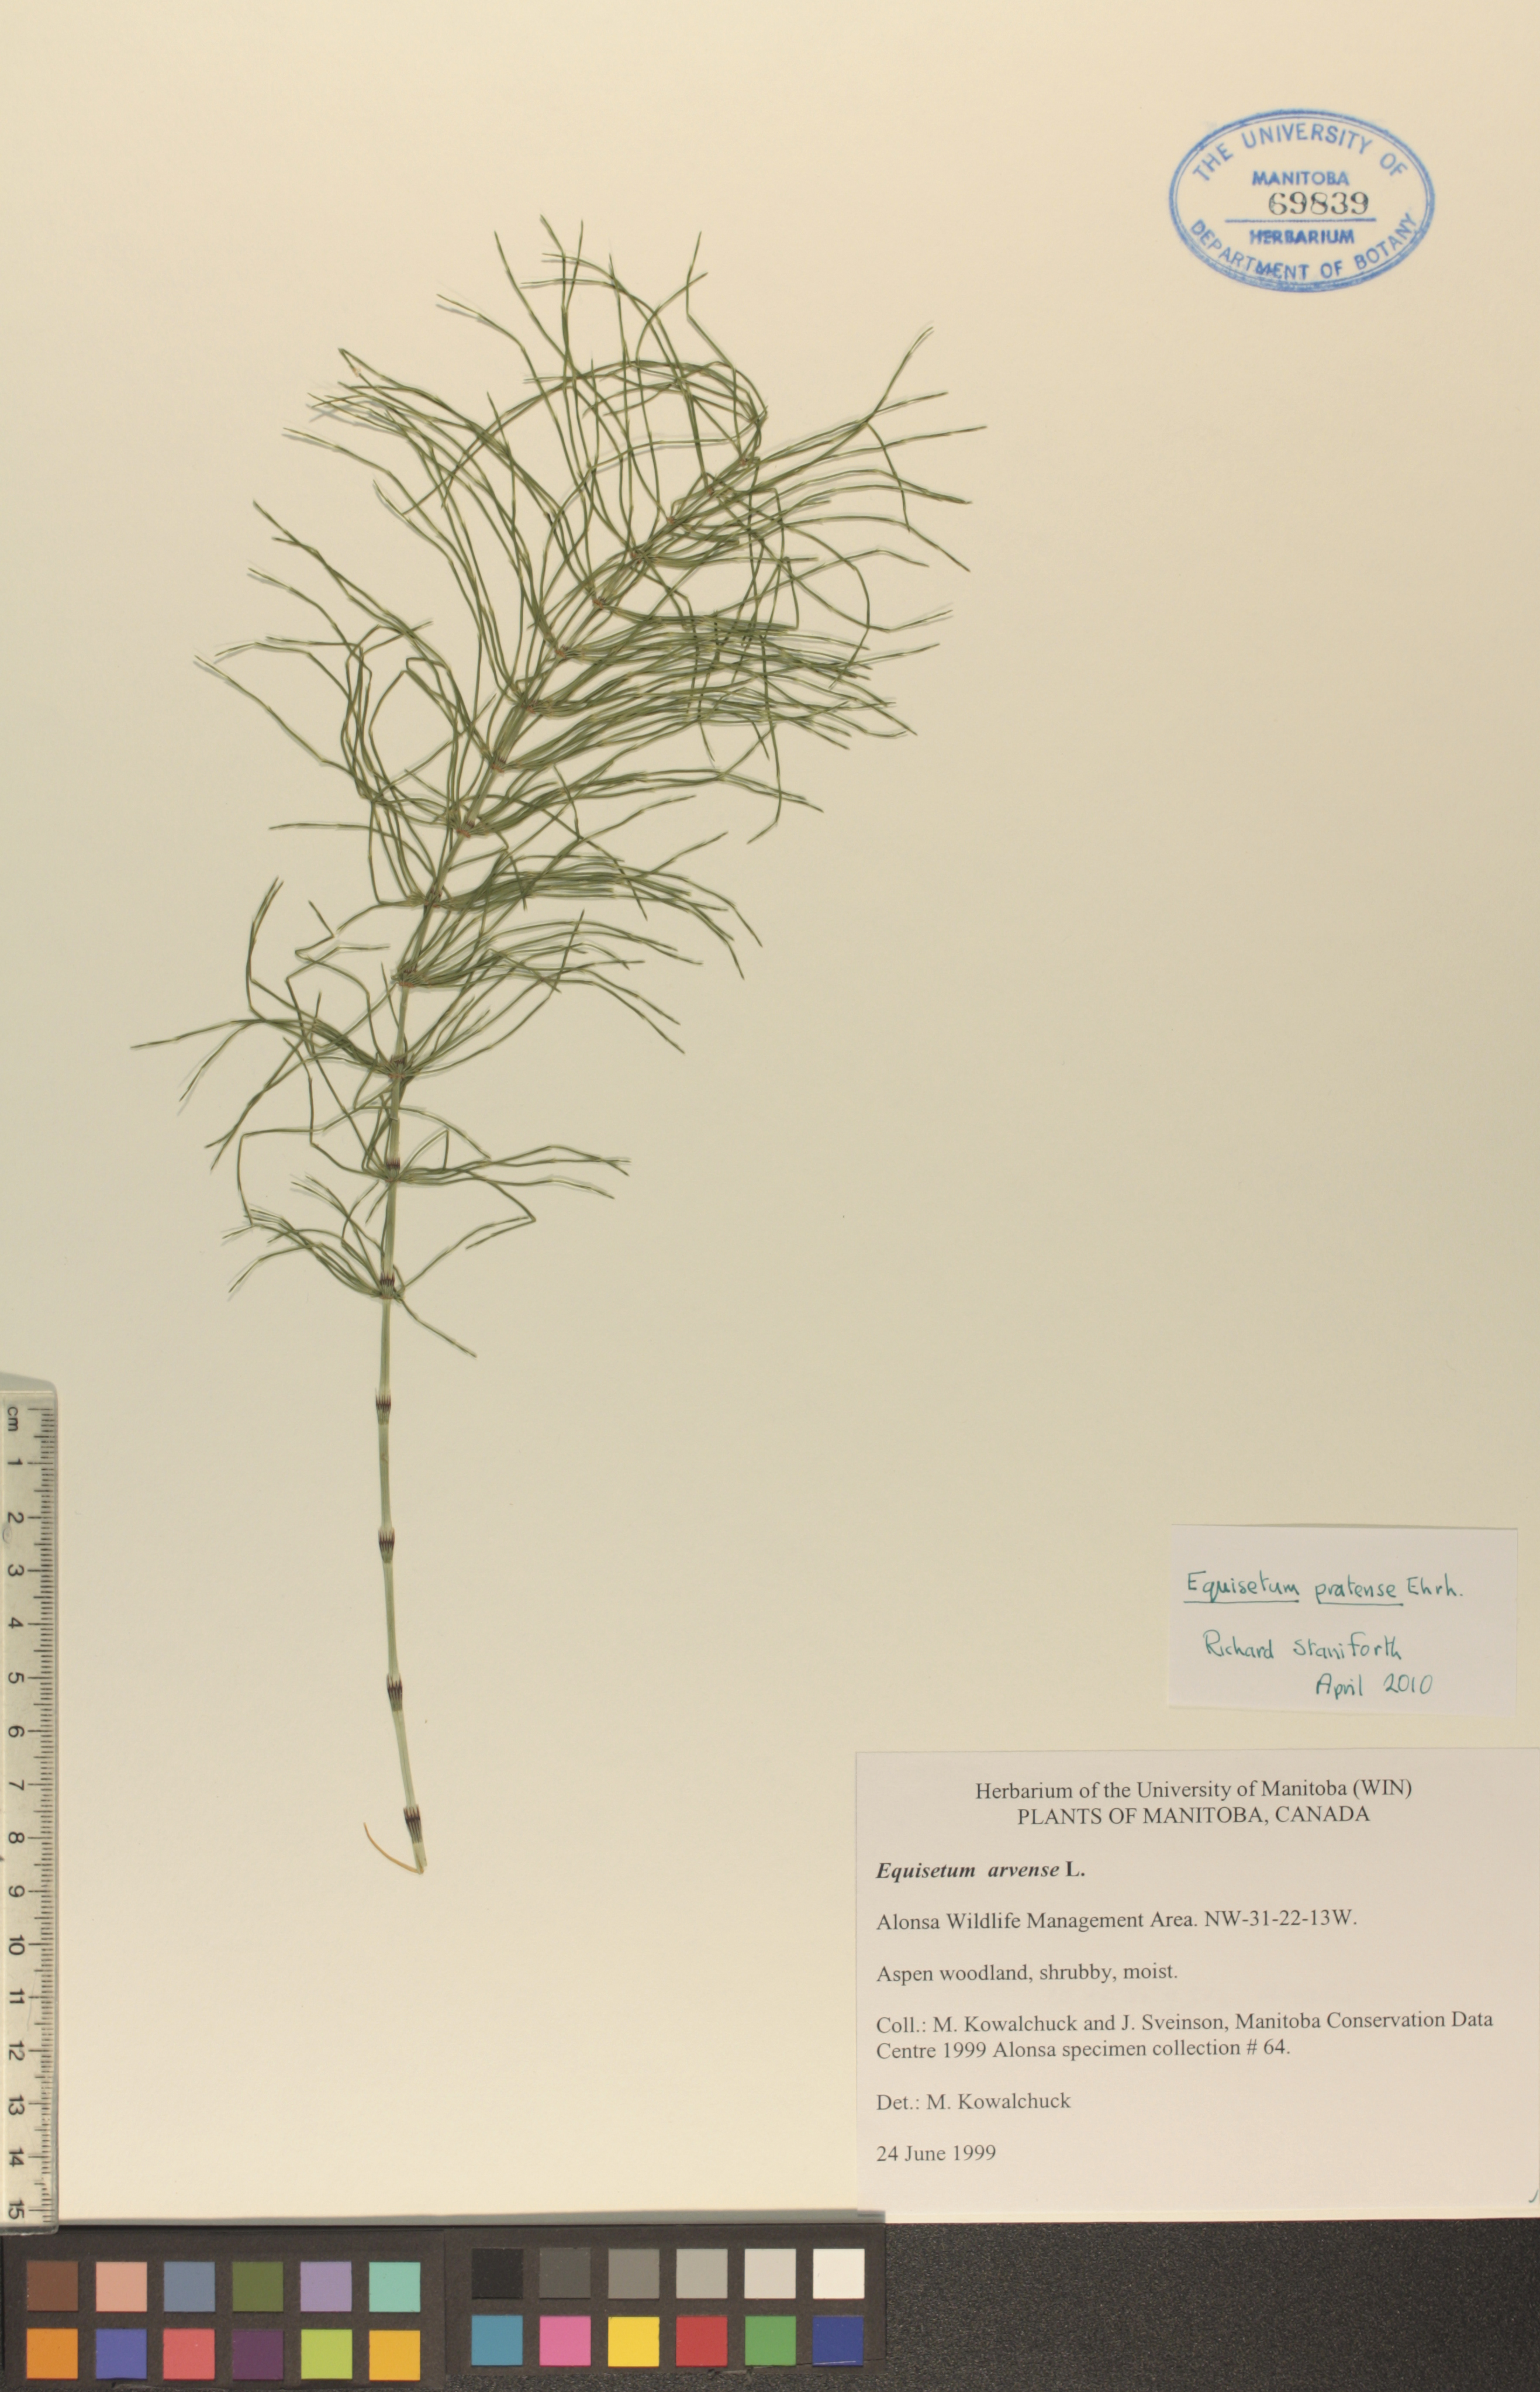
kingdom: Plantae
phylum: Tracheophyta
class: Polypodiopsida
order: Equisetales
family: Equisetaceae
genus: Equisetum
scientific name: Equisetum pratense
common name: Meadow horsetail
